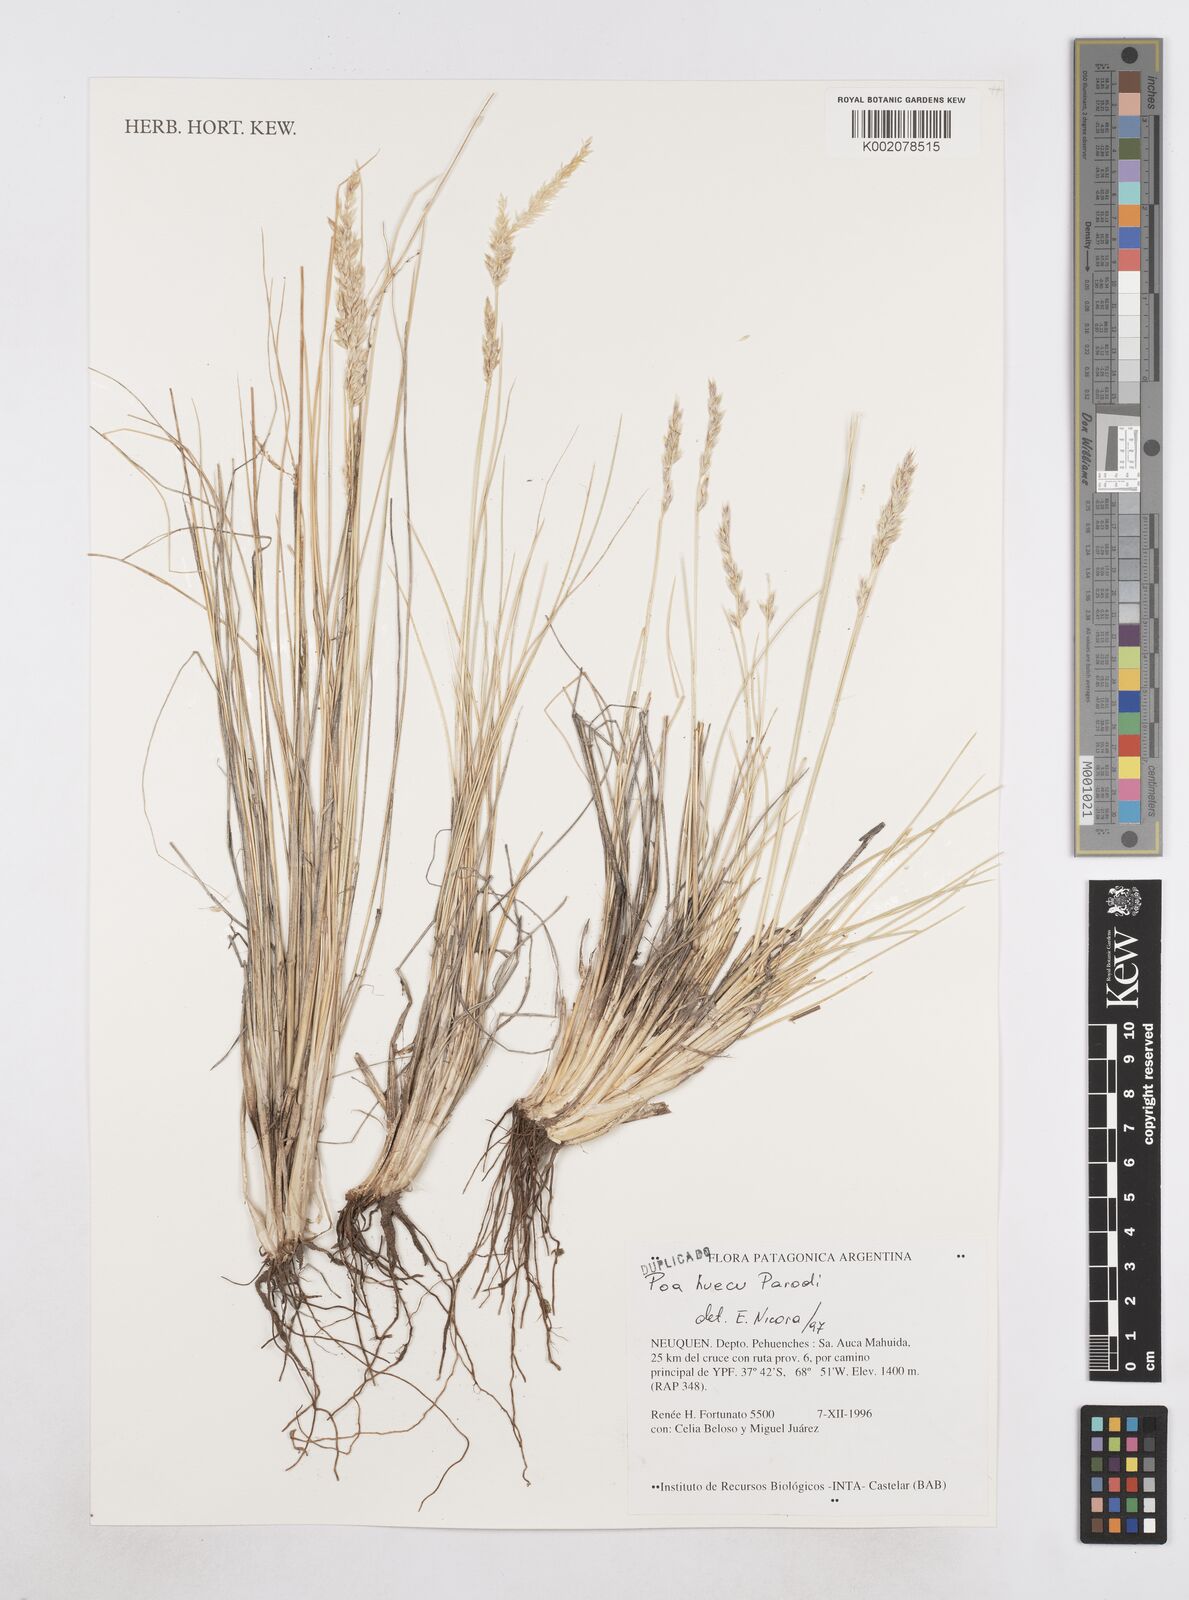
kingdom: Plantae
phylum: Tracheophyta
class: Liliopsida
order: Poales
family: Poaceae
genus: Poa
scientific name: Poa huecu
